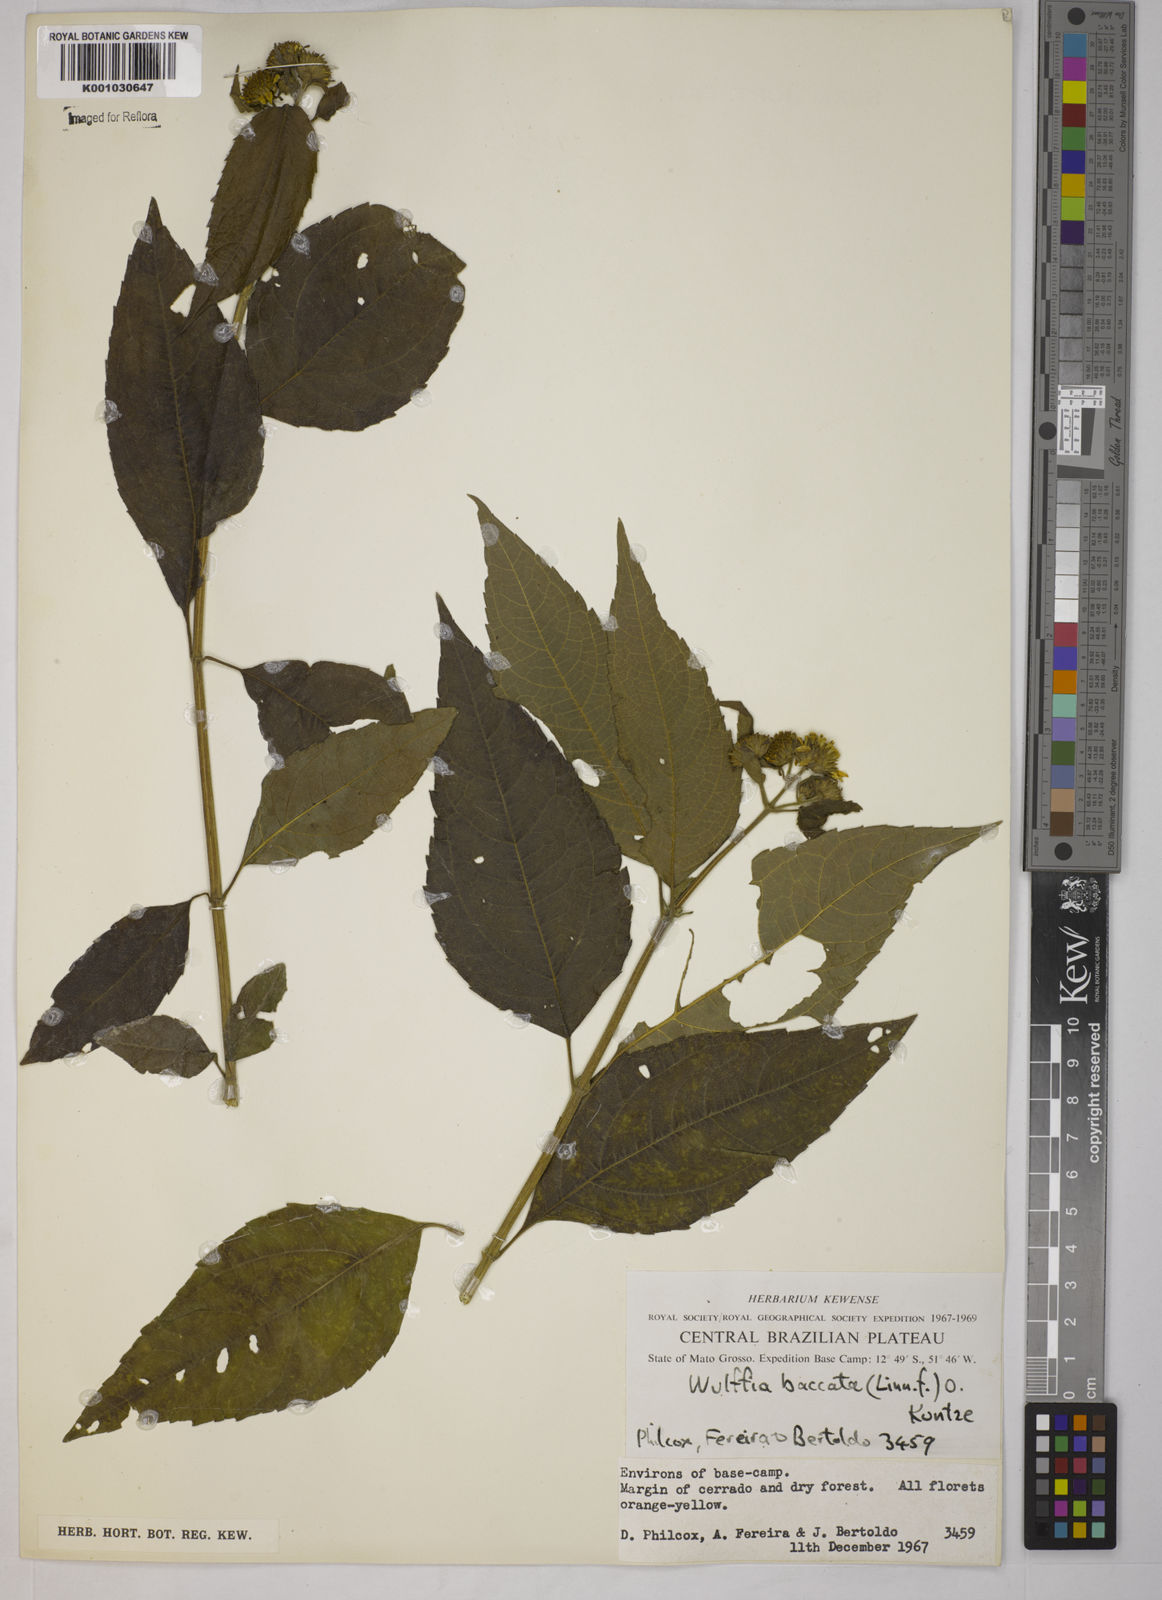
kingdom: Plantae
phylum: Tracheophyta
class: Magnoliopsida
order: Asterales
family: Asteraceae
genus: Tilesia
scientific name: Tilesia baccata
